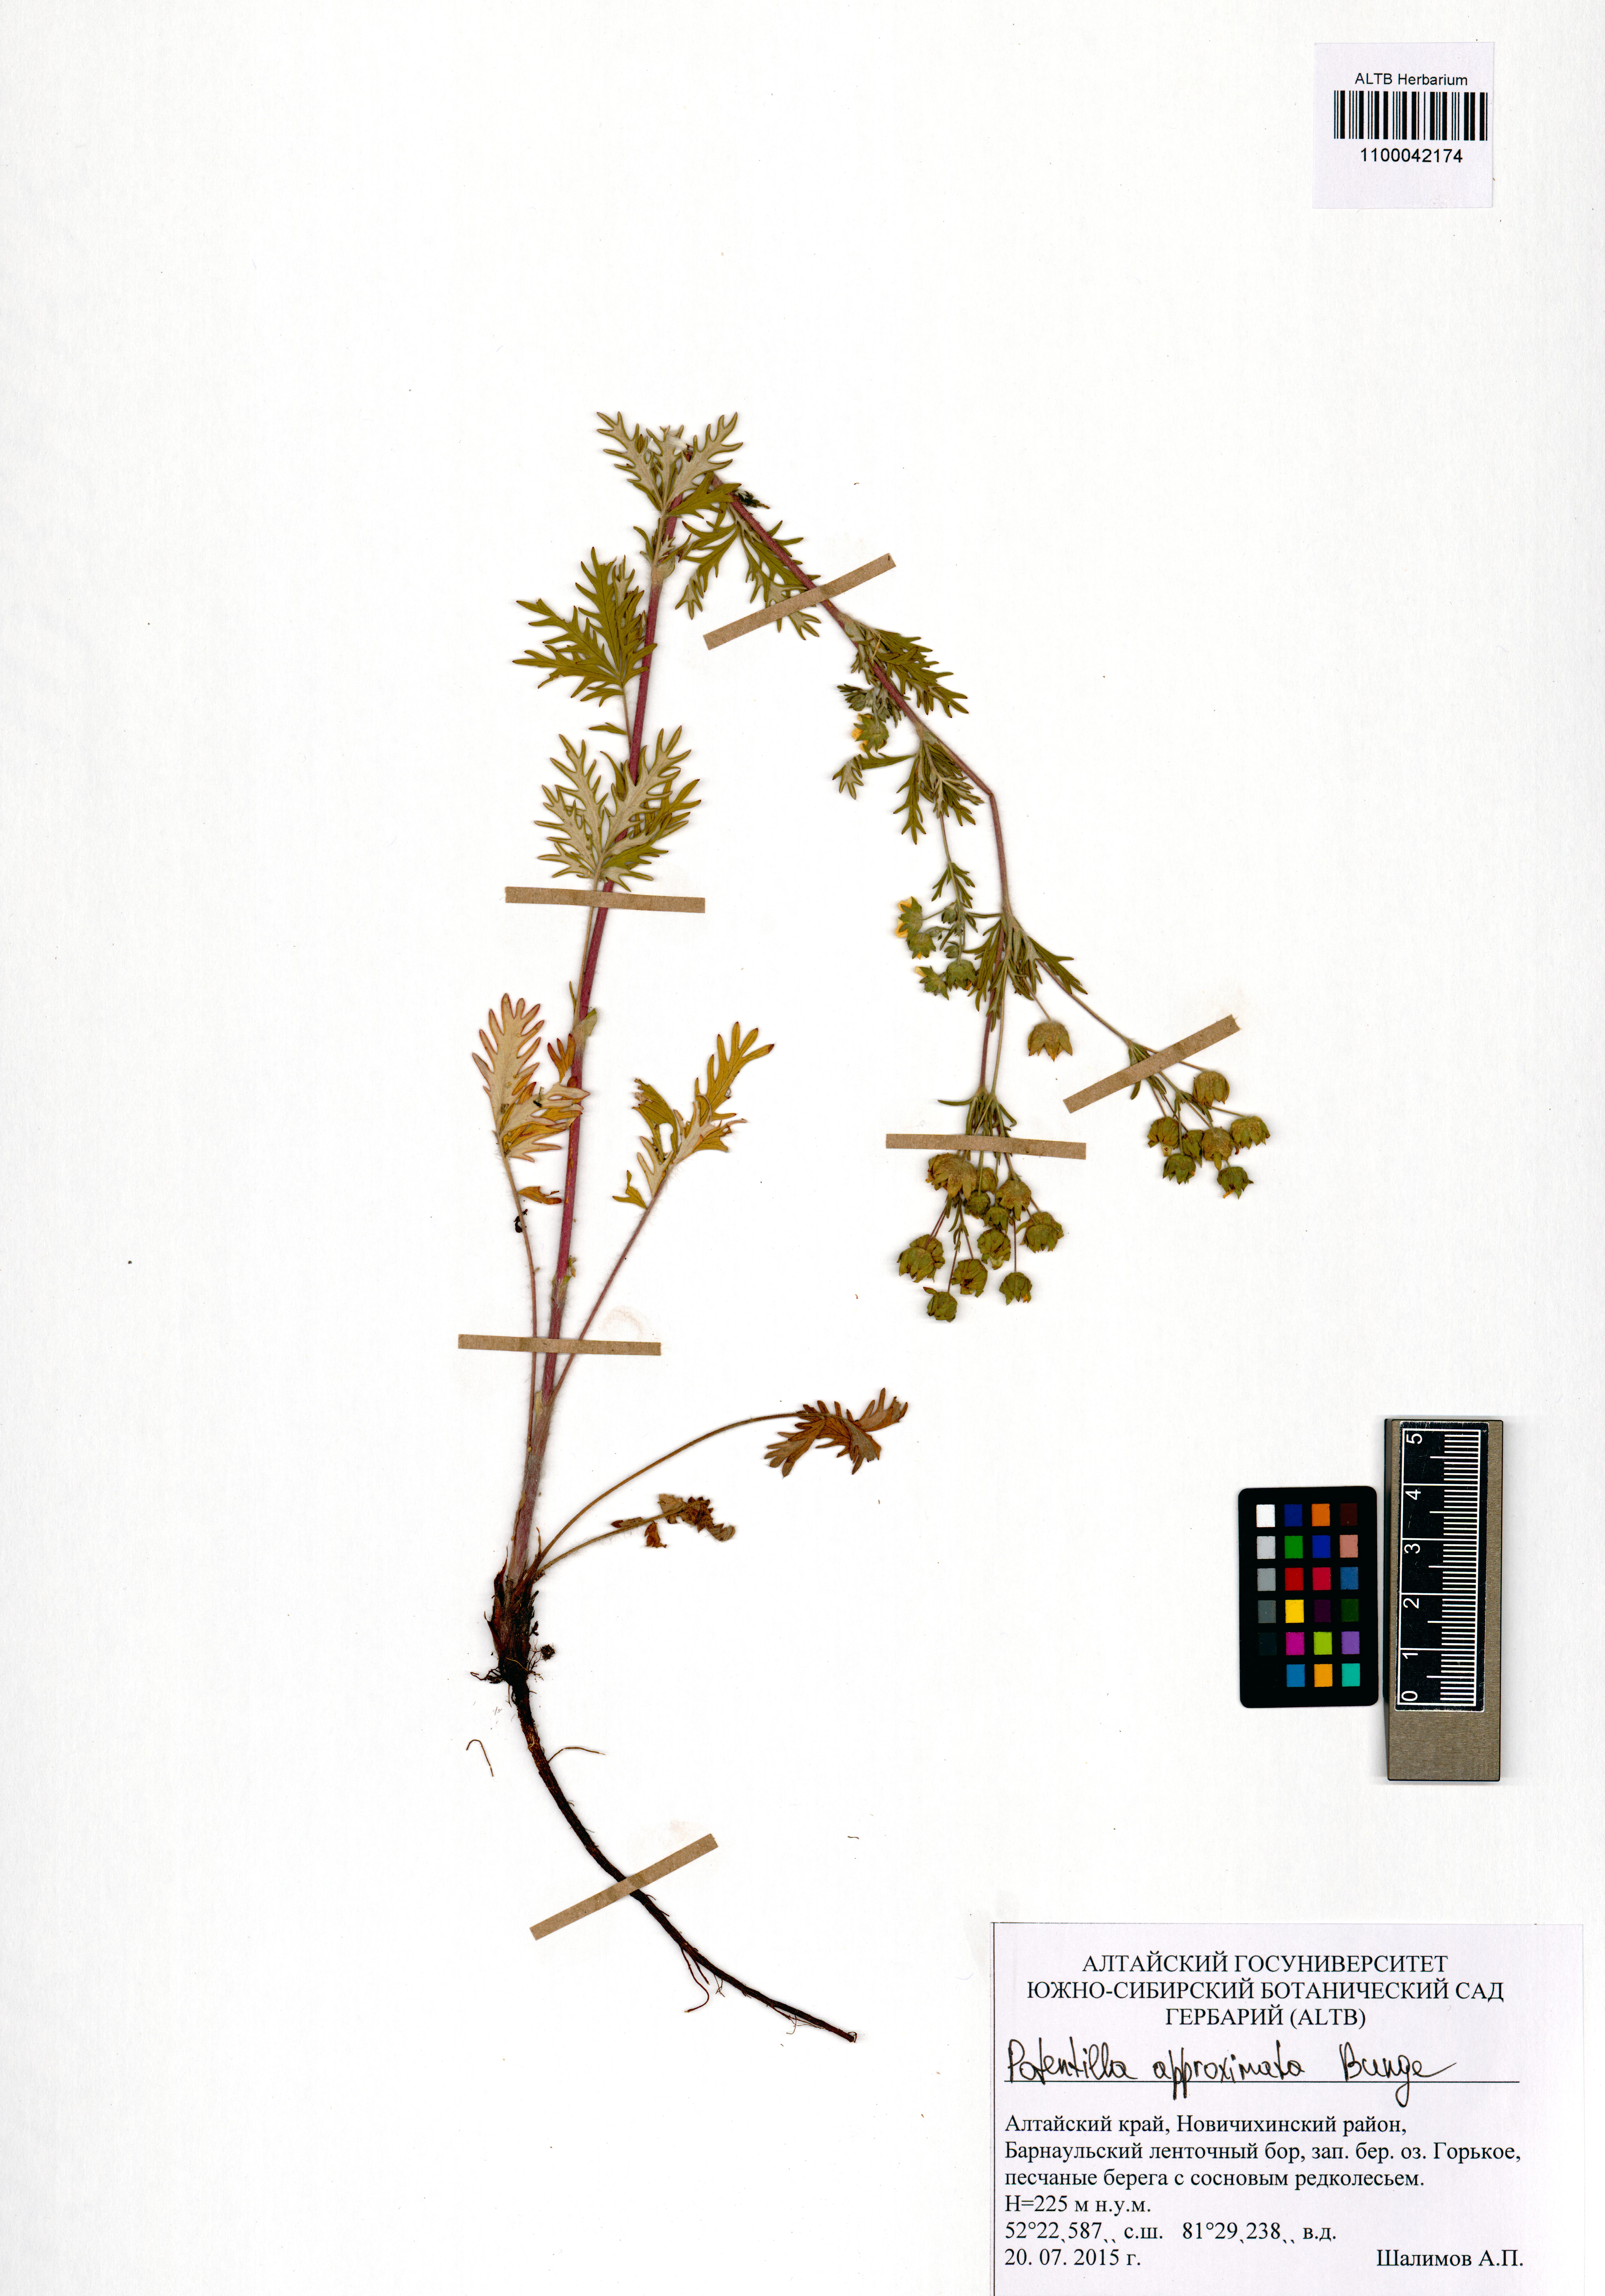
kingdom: Plantae
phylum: Tracheophyta
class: Magnoliopsida
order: Rosales
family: Rosaceae
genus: Potentilla
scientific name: Potentilla conferta
